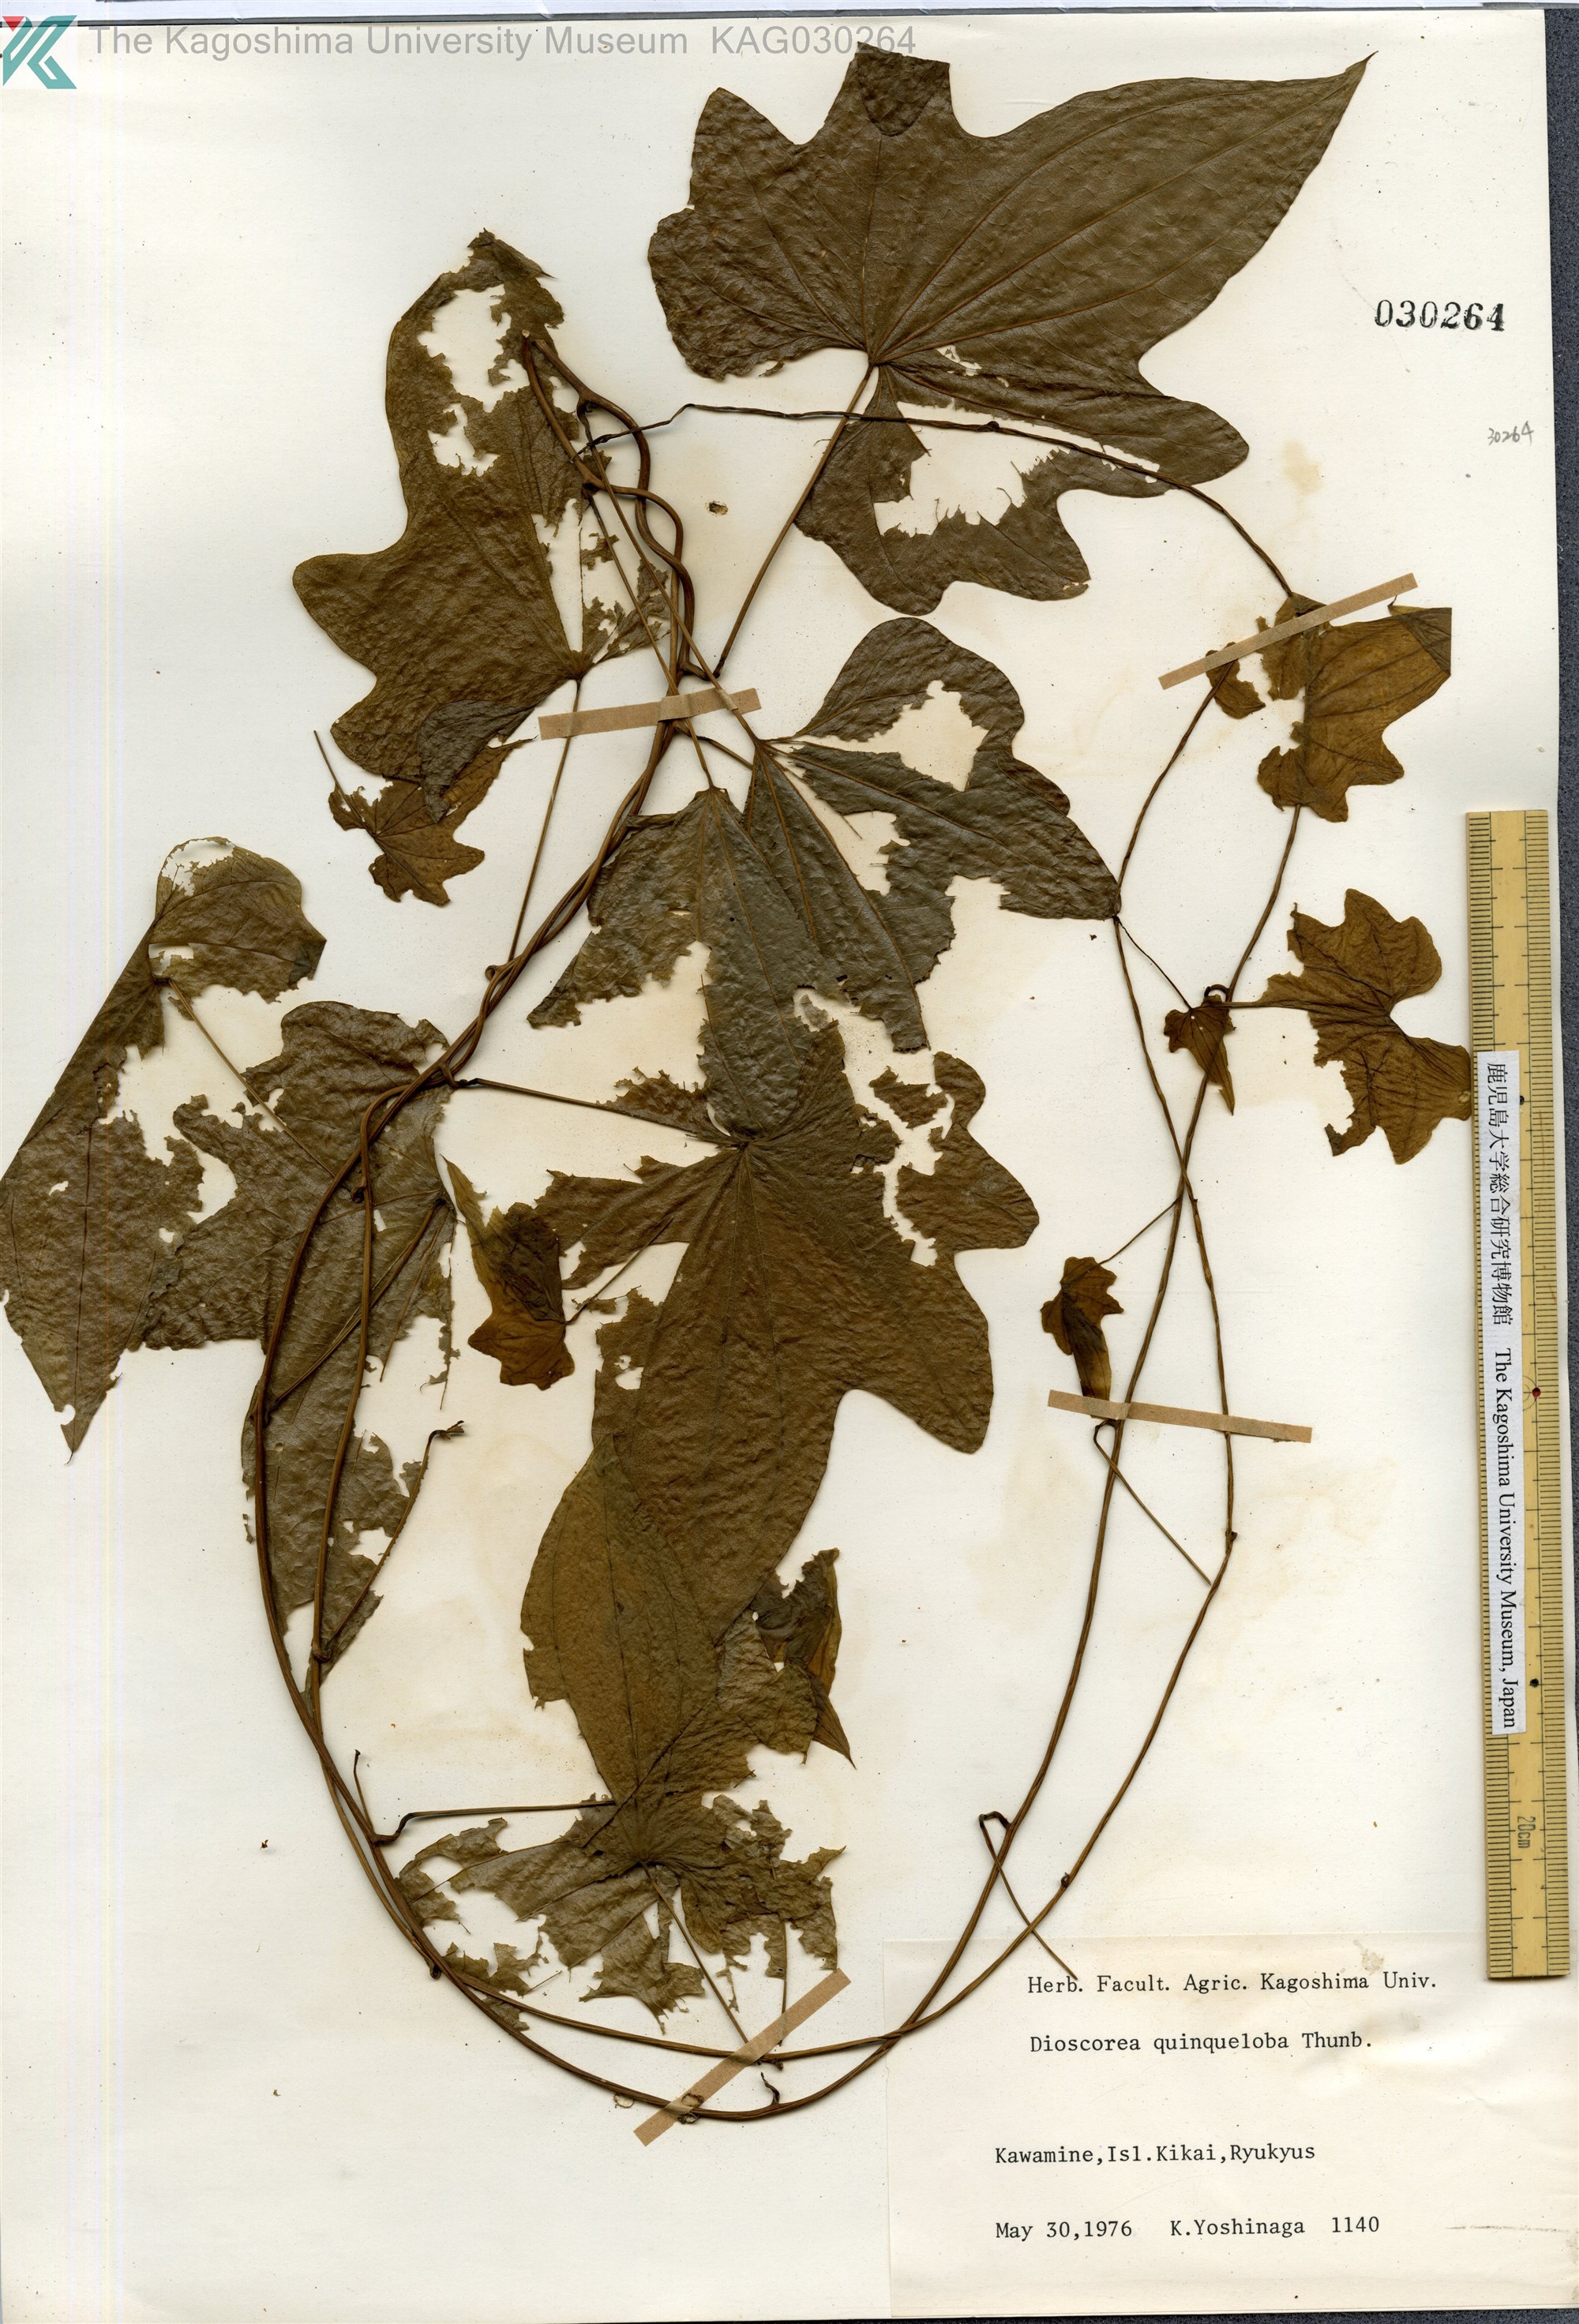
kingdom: Plantae
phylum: Tracheophyta
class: Liliopsida
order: Dioscoreales
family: Dioscoreaceae
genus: Dioscorea
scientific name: Dioscorea quinquelobata
